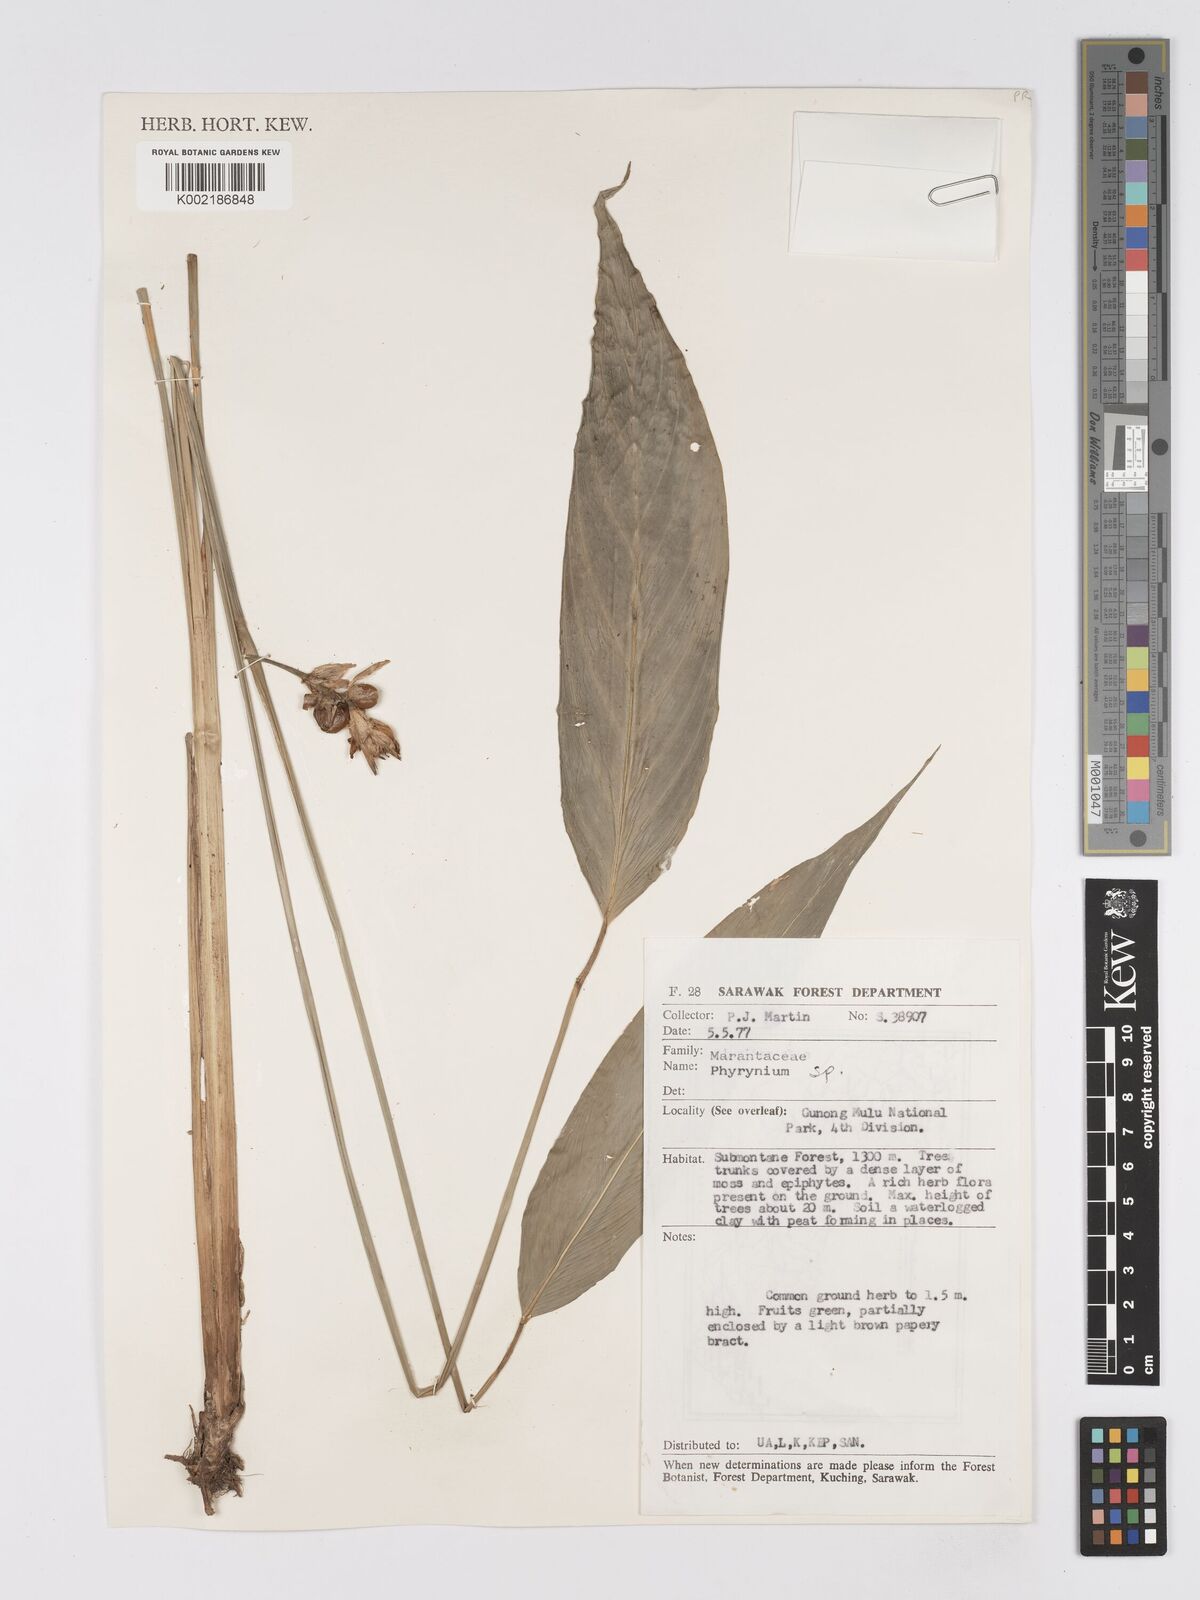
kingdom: Plantae
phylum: Tracheophyta
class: Liliopsida
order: Zingiberales
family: Marantaceae
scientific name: Marantaceae
